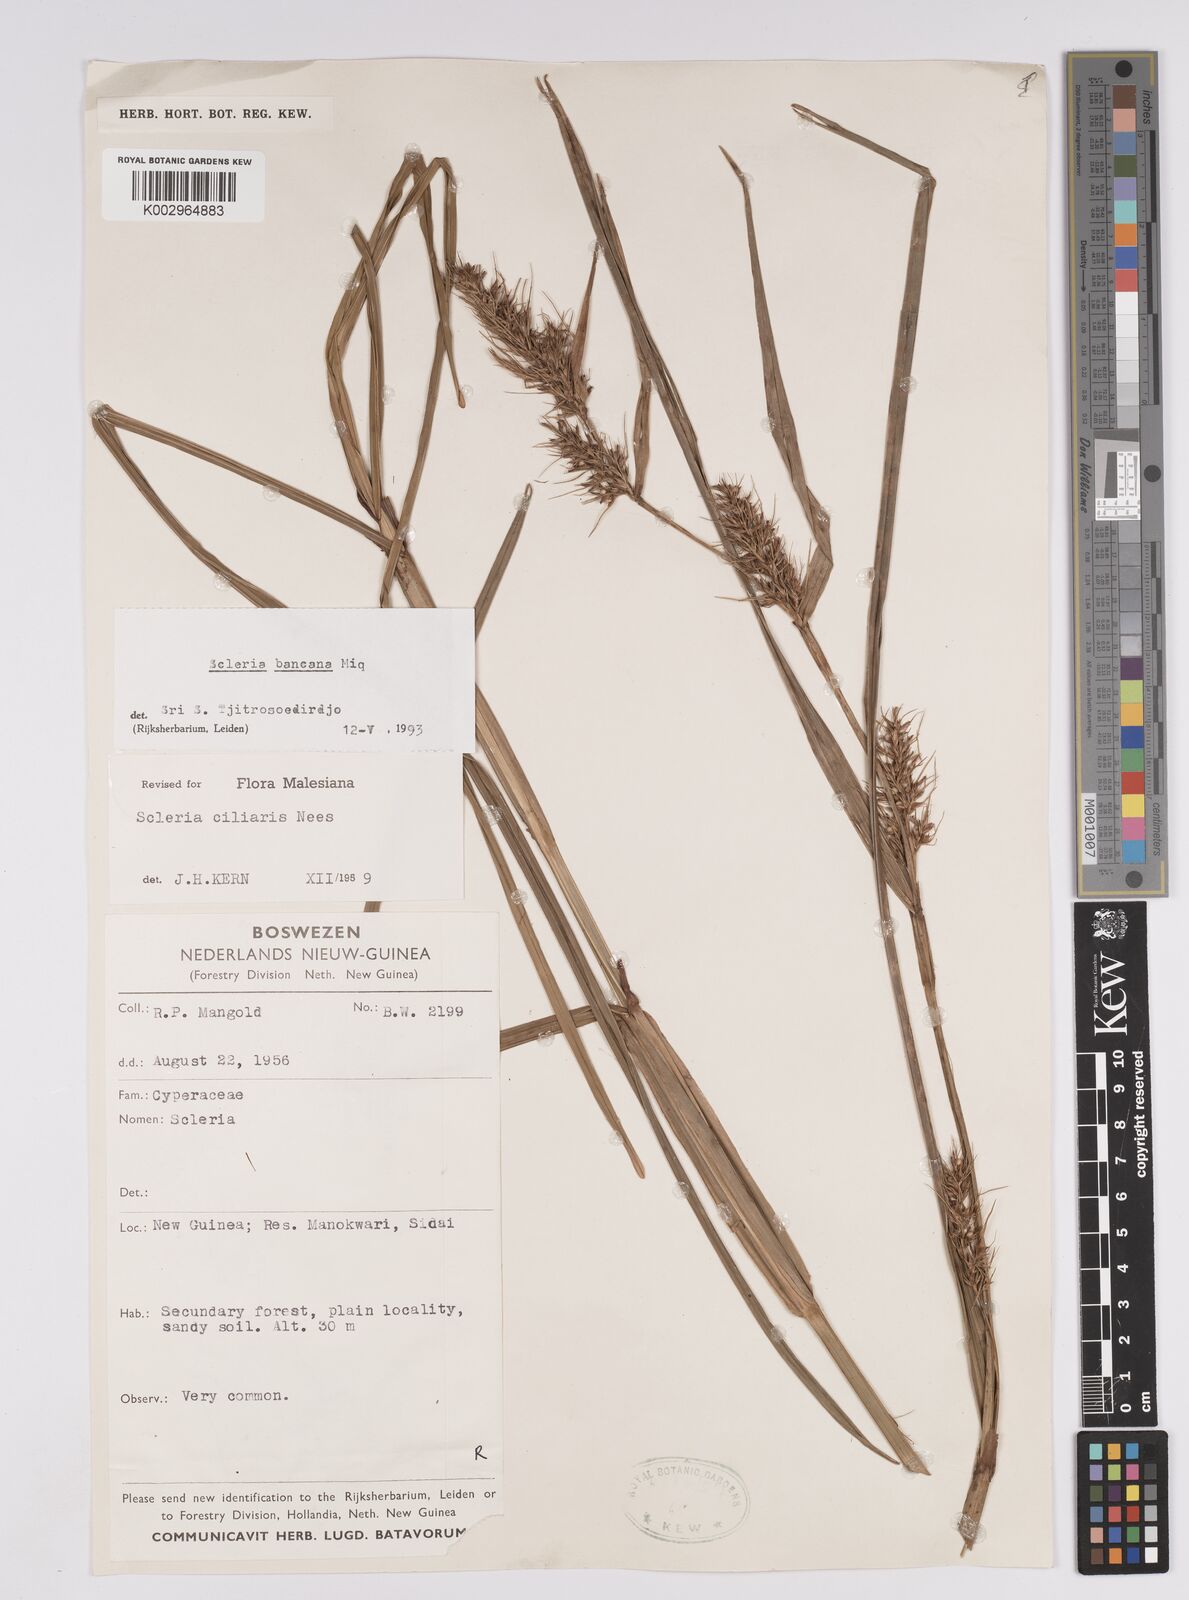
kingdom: Plantae
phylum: Tracheophyta
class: Liliopsida
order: Poales
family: Cyperaceae
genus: Scleria
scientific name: Scleria ciliaris
